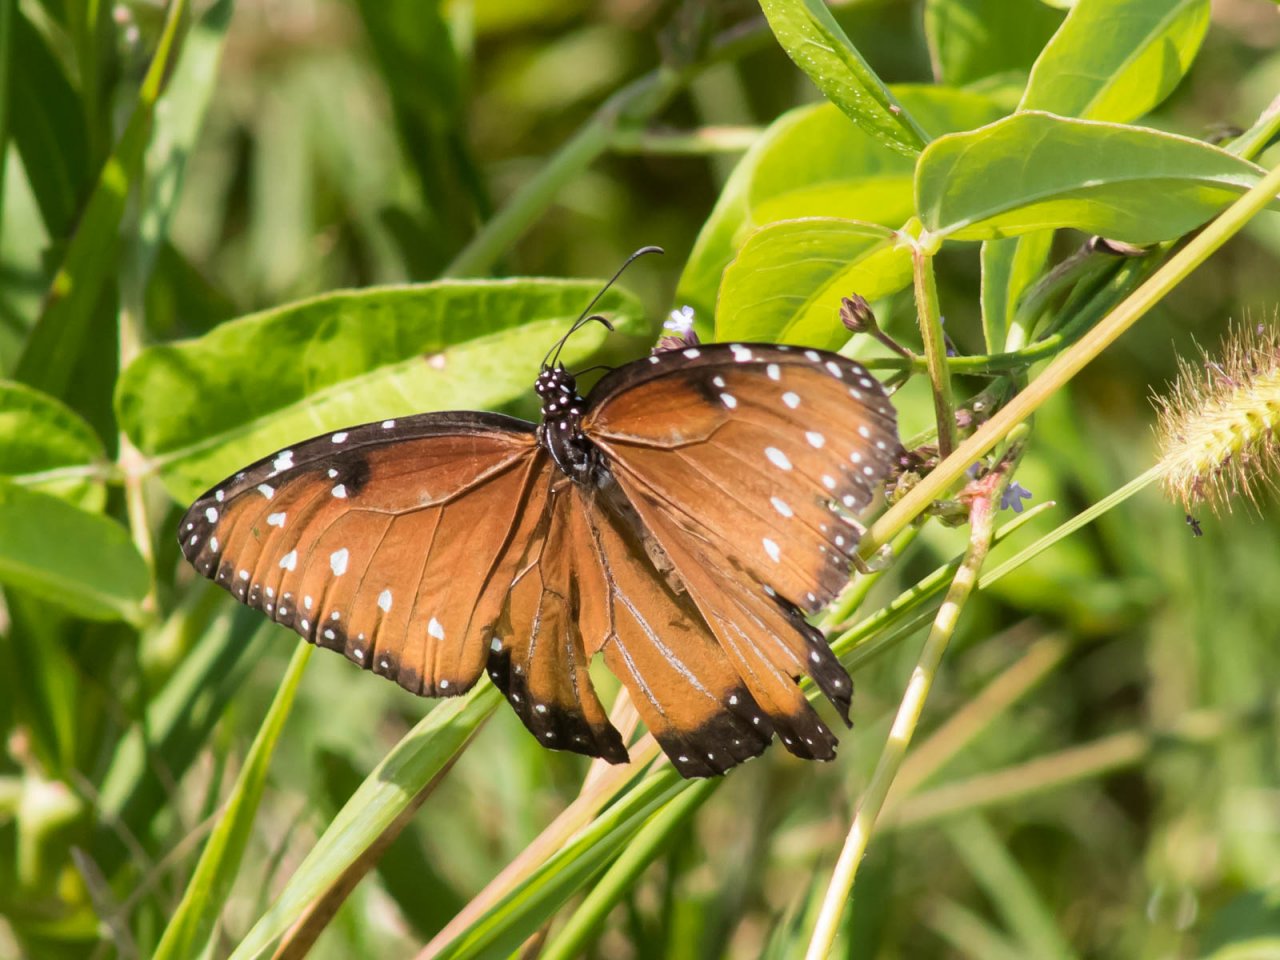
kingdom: Animalia
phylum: Arthropoda
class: Insecta
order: Lepidoptera
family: Nymphalidae
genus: Danaus
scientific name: Danaus gilippus
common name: Queen
